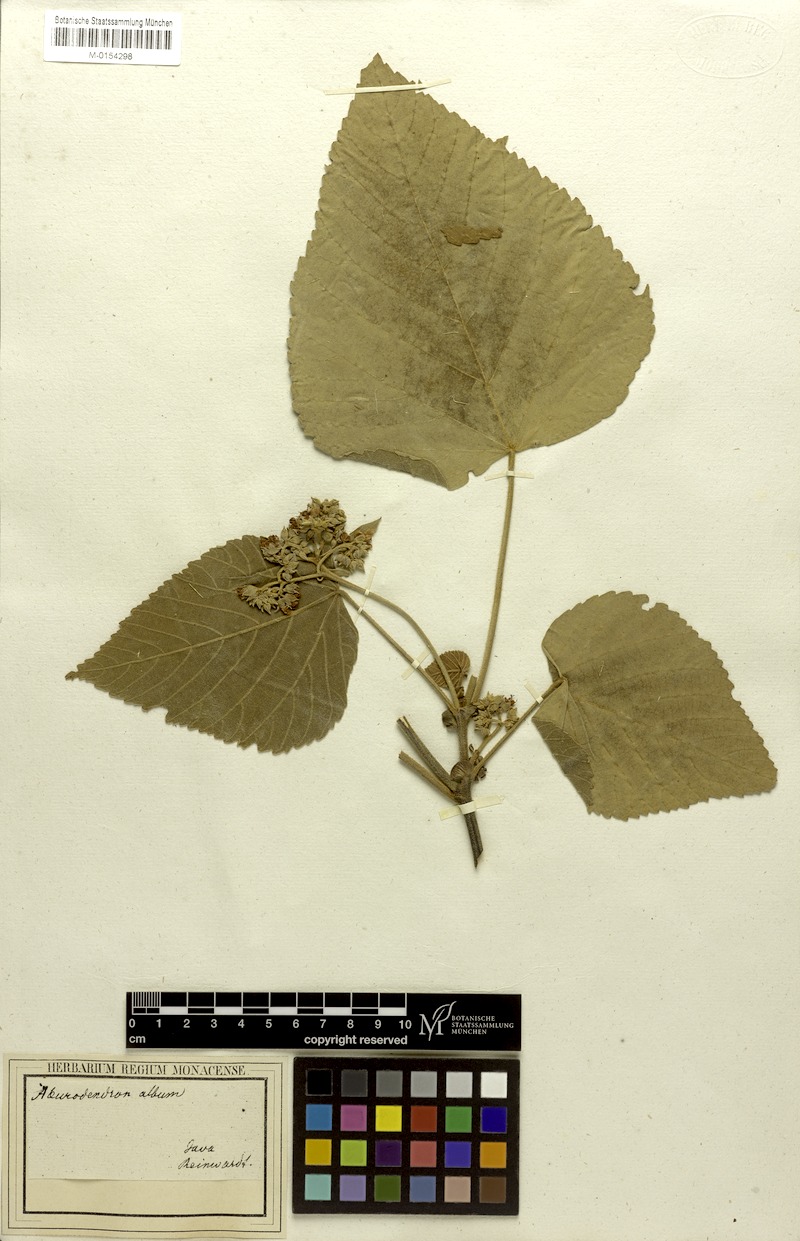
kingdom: Plantae
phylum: Tracheophyta
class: Magnoliopsida
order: Malvales
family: Malvaceae
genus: Melochia
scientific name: Melochia umbellata
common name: Gunpowder tree
